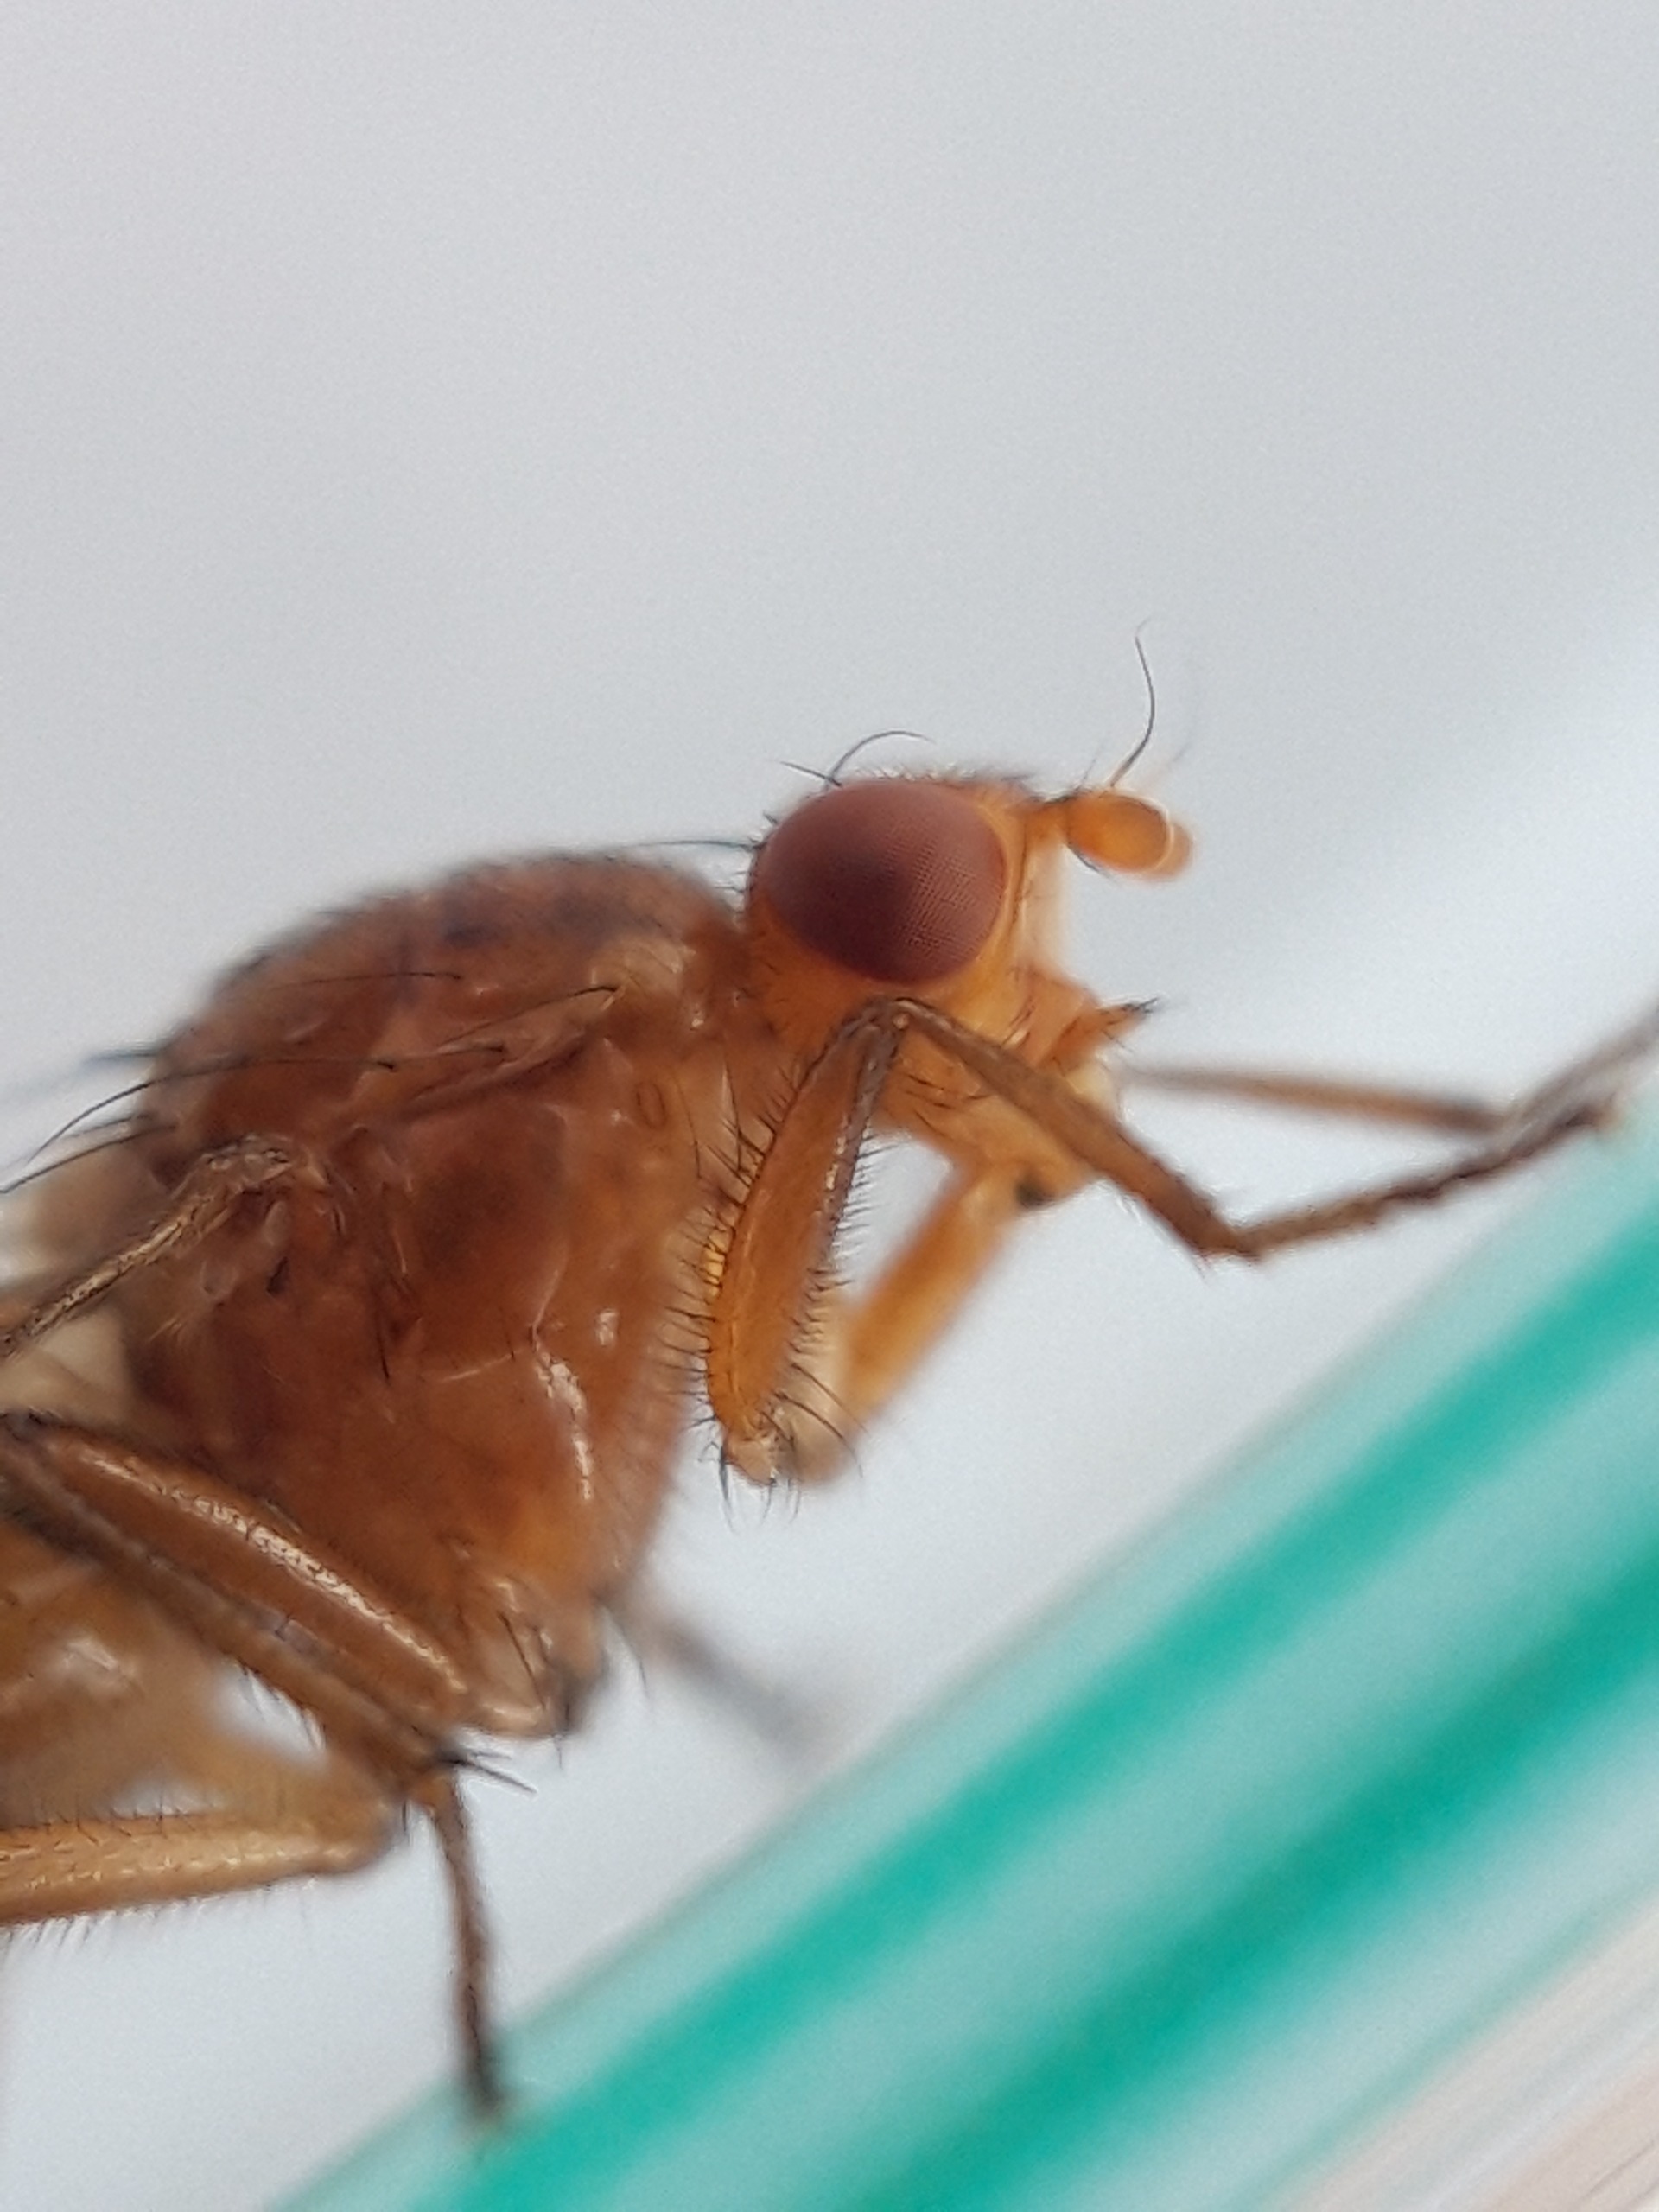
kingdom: Animalia
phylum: Arthropoda
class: Insecta
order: Diptera
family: Dryomyzidae
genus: Dryomyza
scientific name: Dryomyza anilis
